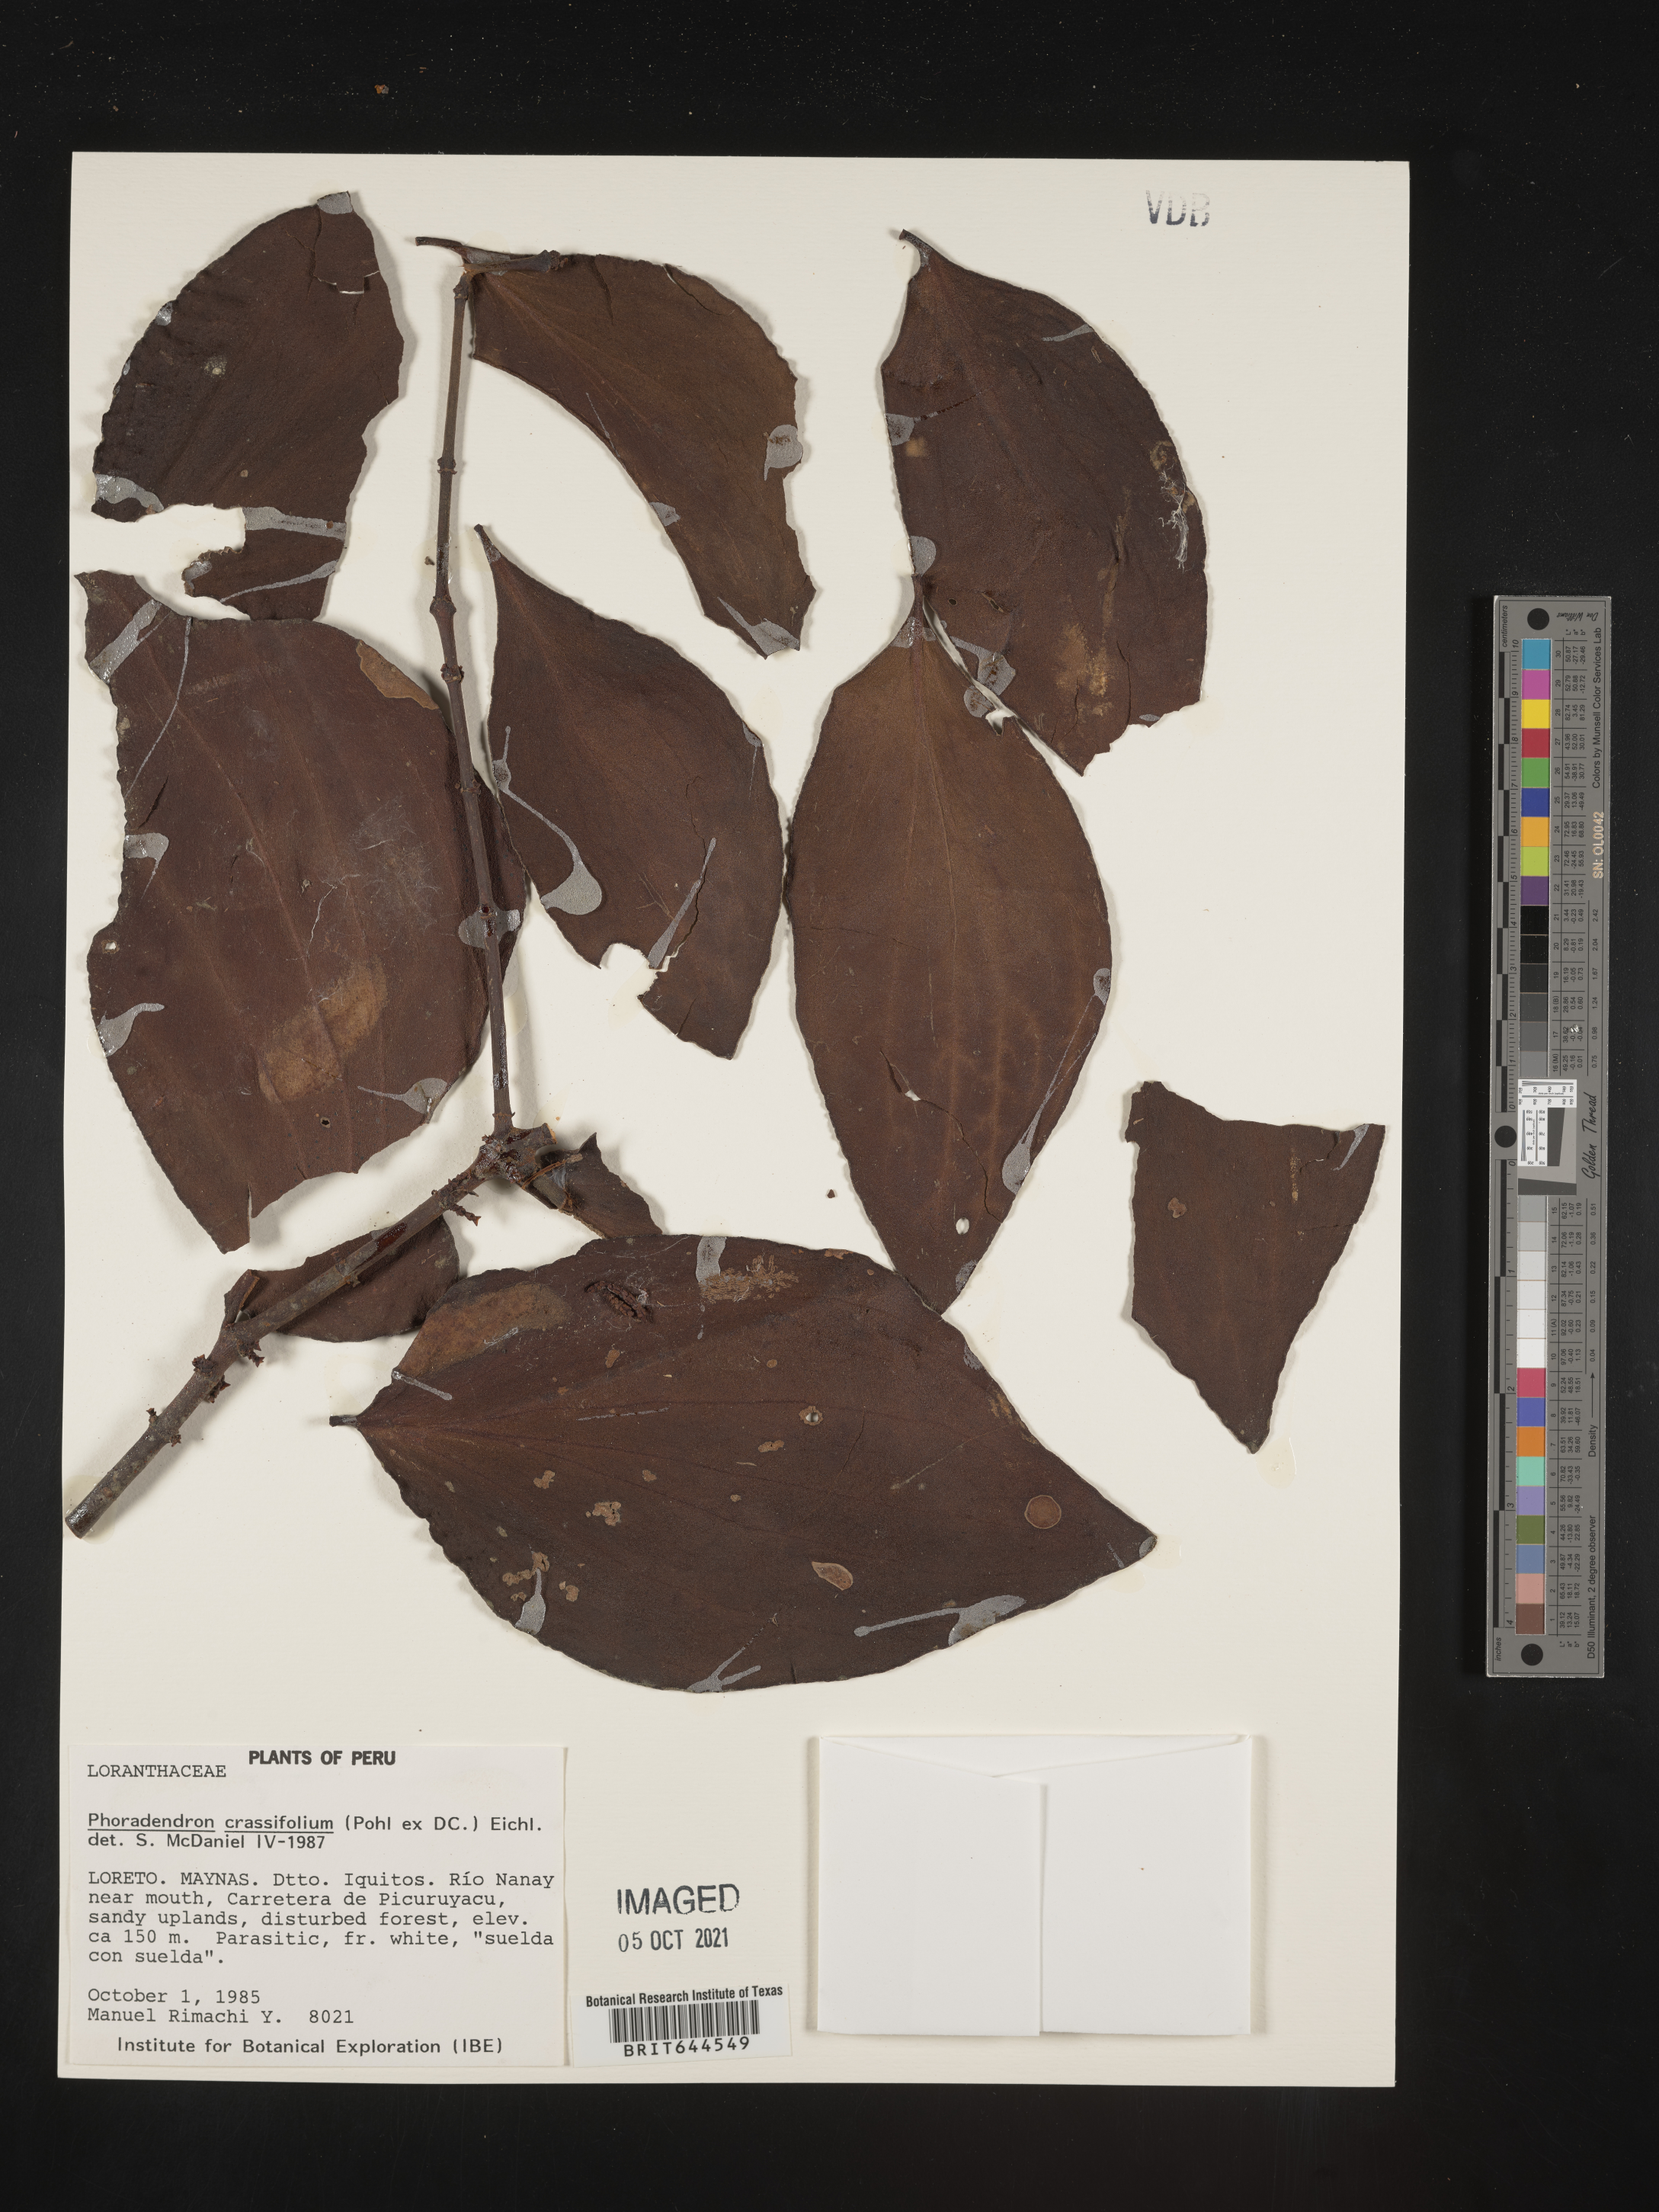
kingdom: Plantae
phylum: Tracheophyta
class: Magnoliopsida
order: Santalales
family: Viscaceae
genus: Phoradendron
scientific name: Phoradendron
